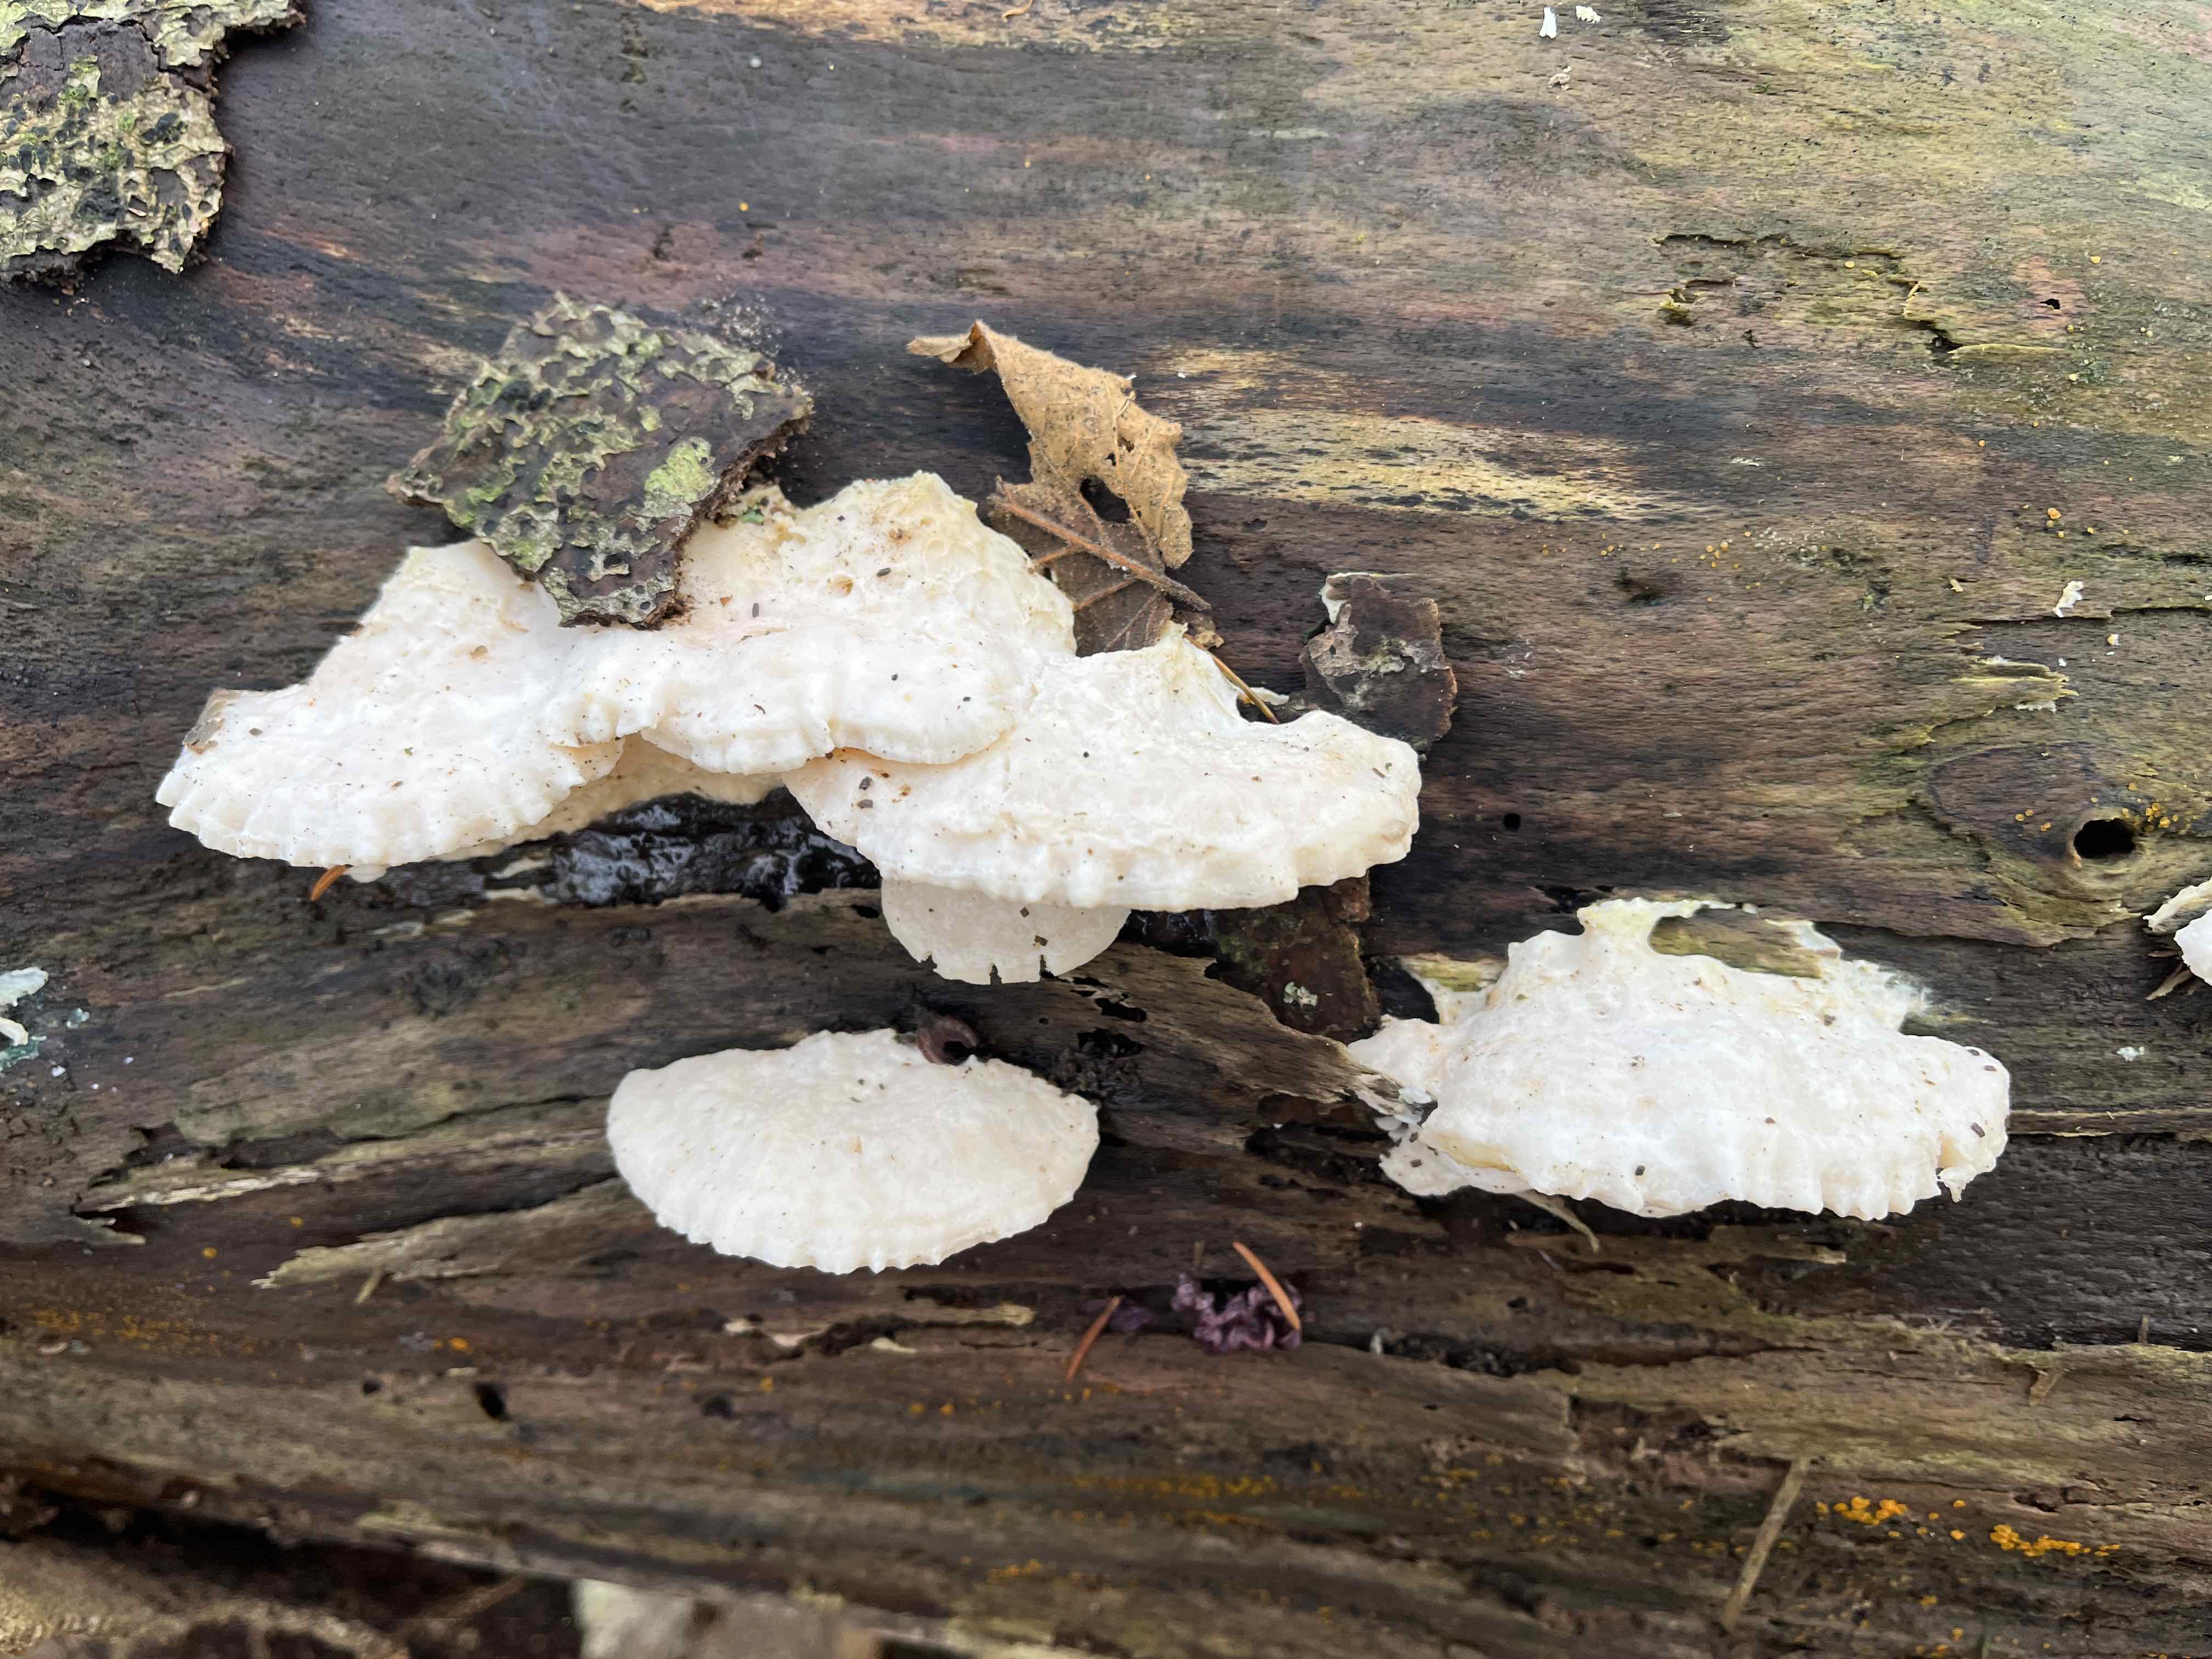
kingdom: Fungi
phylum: Basidiomycota
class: Agaricomycetes
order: Polyporales
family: Incrustoporiaceae
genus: Tyromyces
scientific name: Tyromyces lacteus
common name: mælkehvid kødporesvamp
